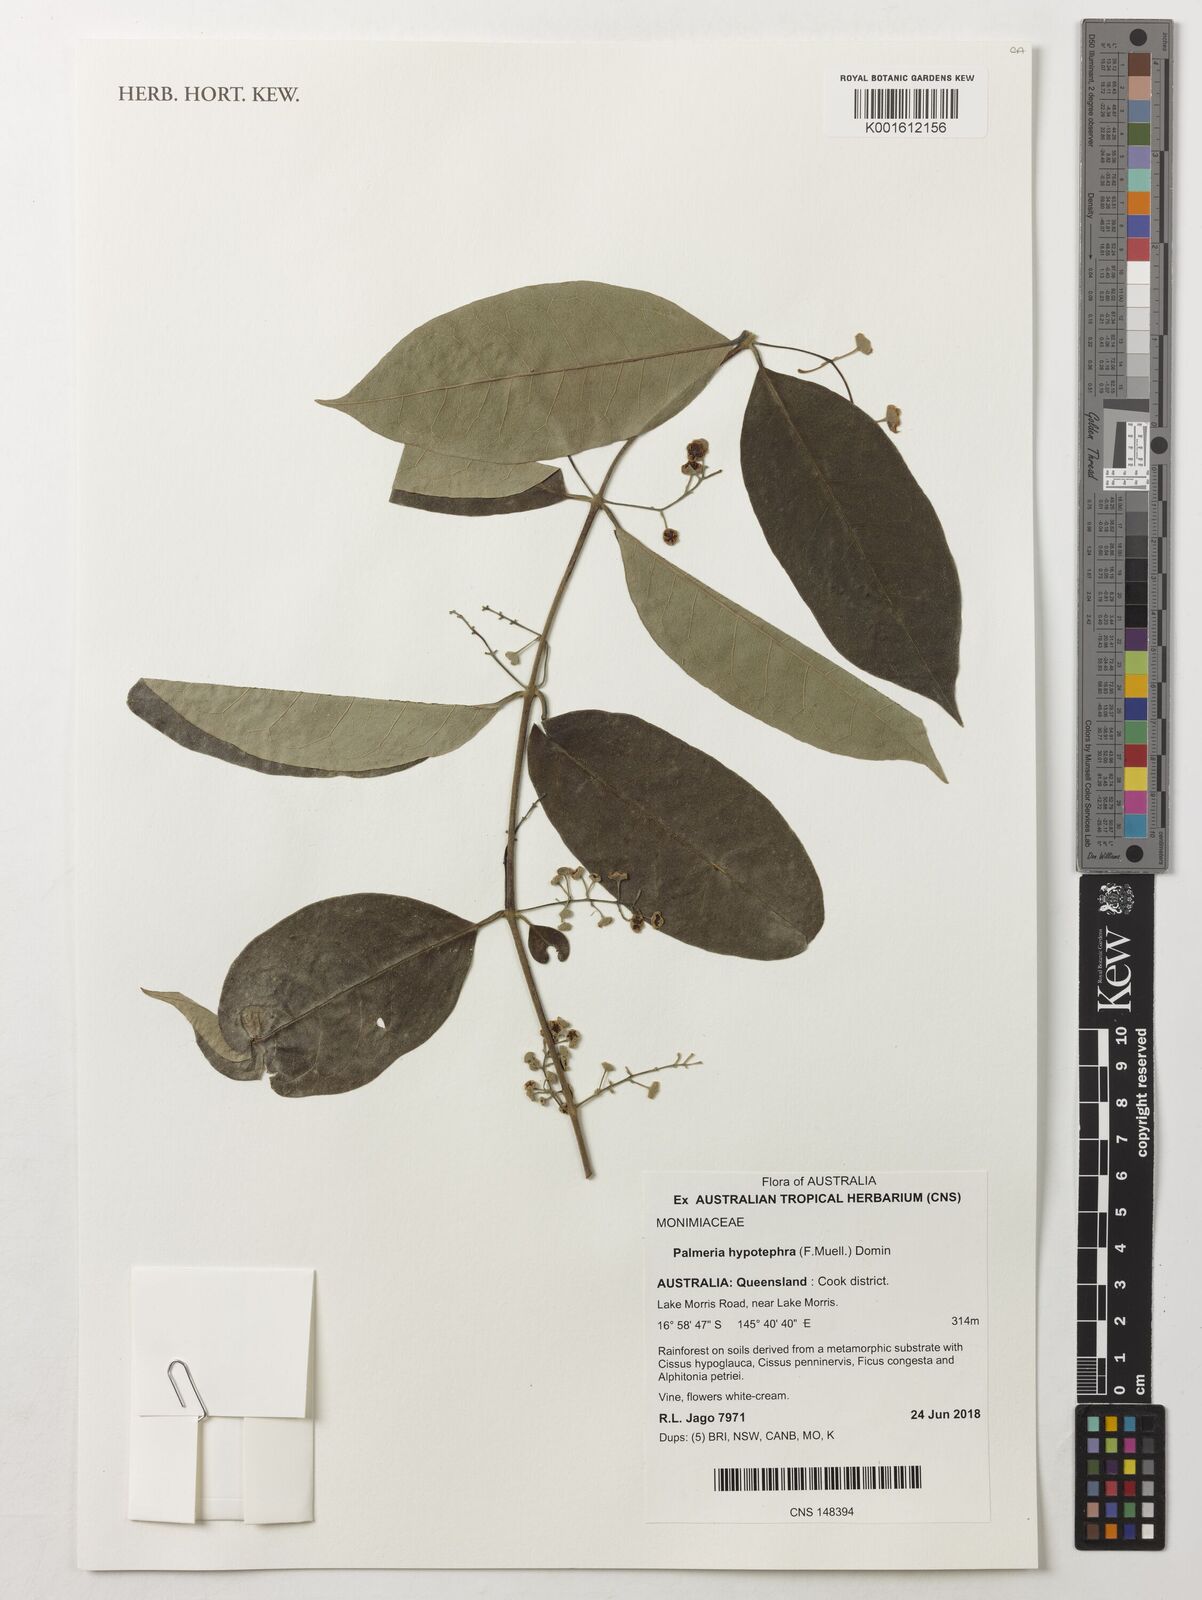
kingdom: Plantae
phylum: Tracheophyta
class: Magnoliopsida
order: Laurales
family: Monimiaceae
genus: Palmeria
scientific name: Palmeria hypotephra
